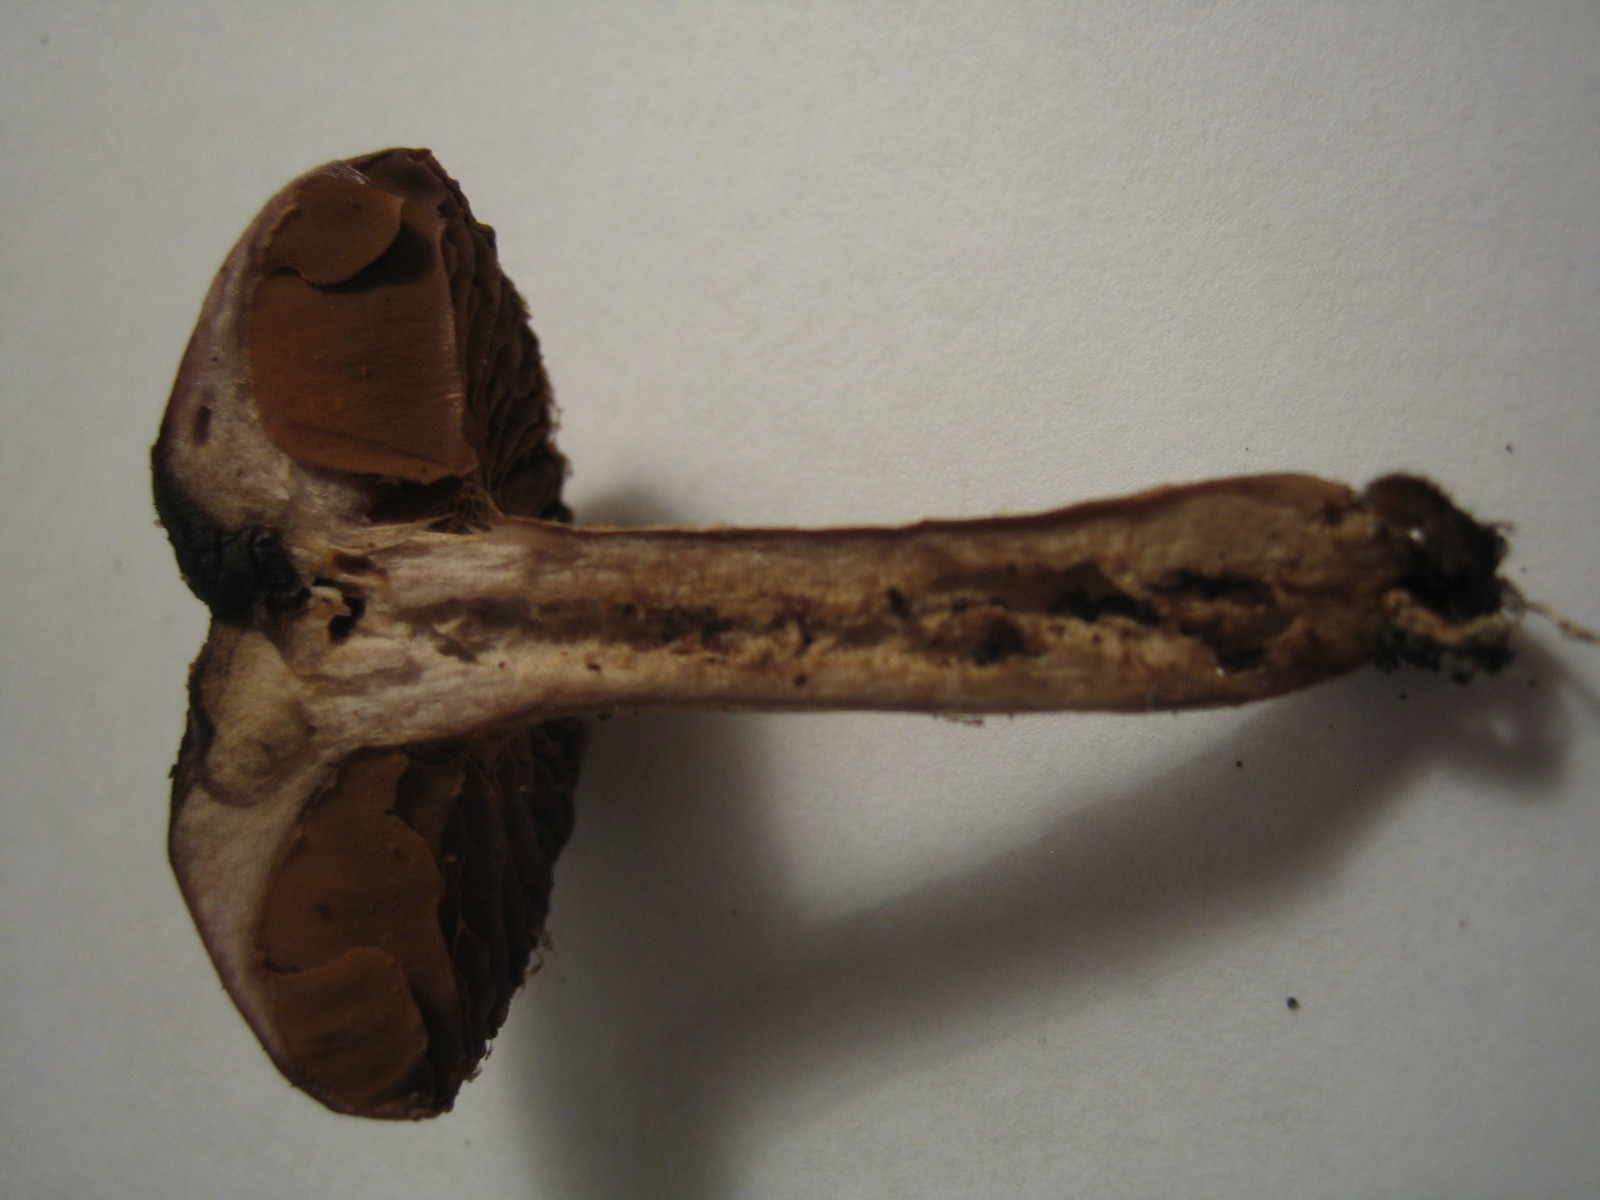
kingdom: Fungi
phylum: Basidiomycota
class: Agaricomycetes
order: Agaricales
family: Cortinariaceae
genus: Cortinarius
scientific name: Cortinarius
